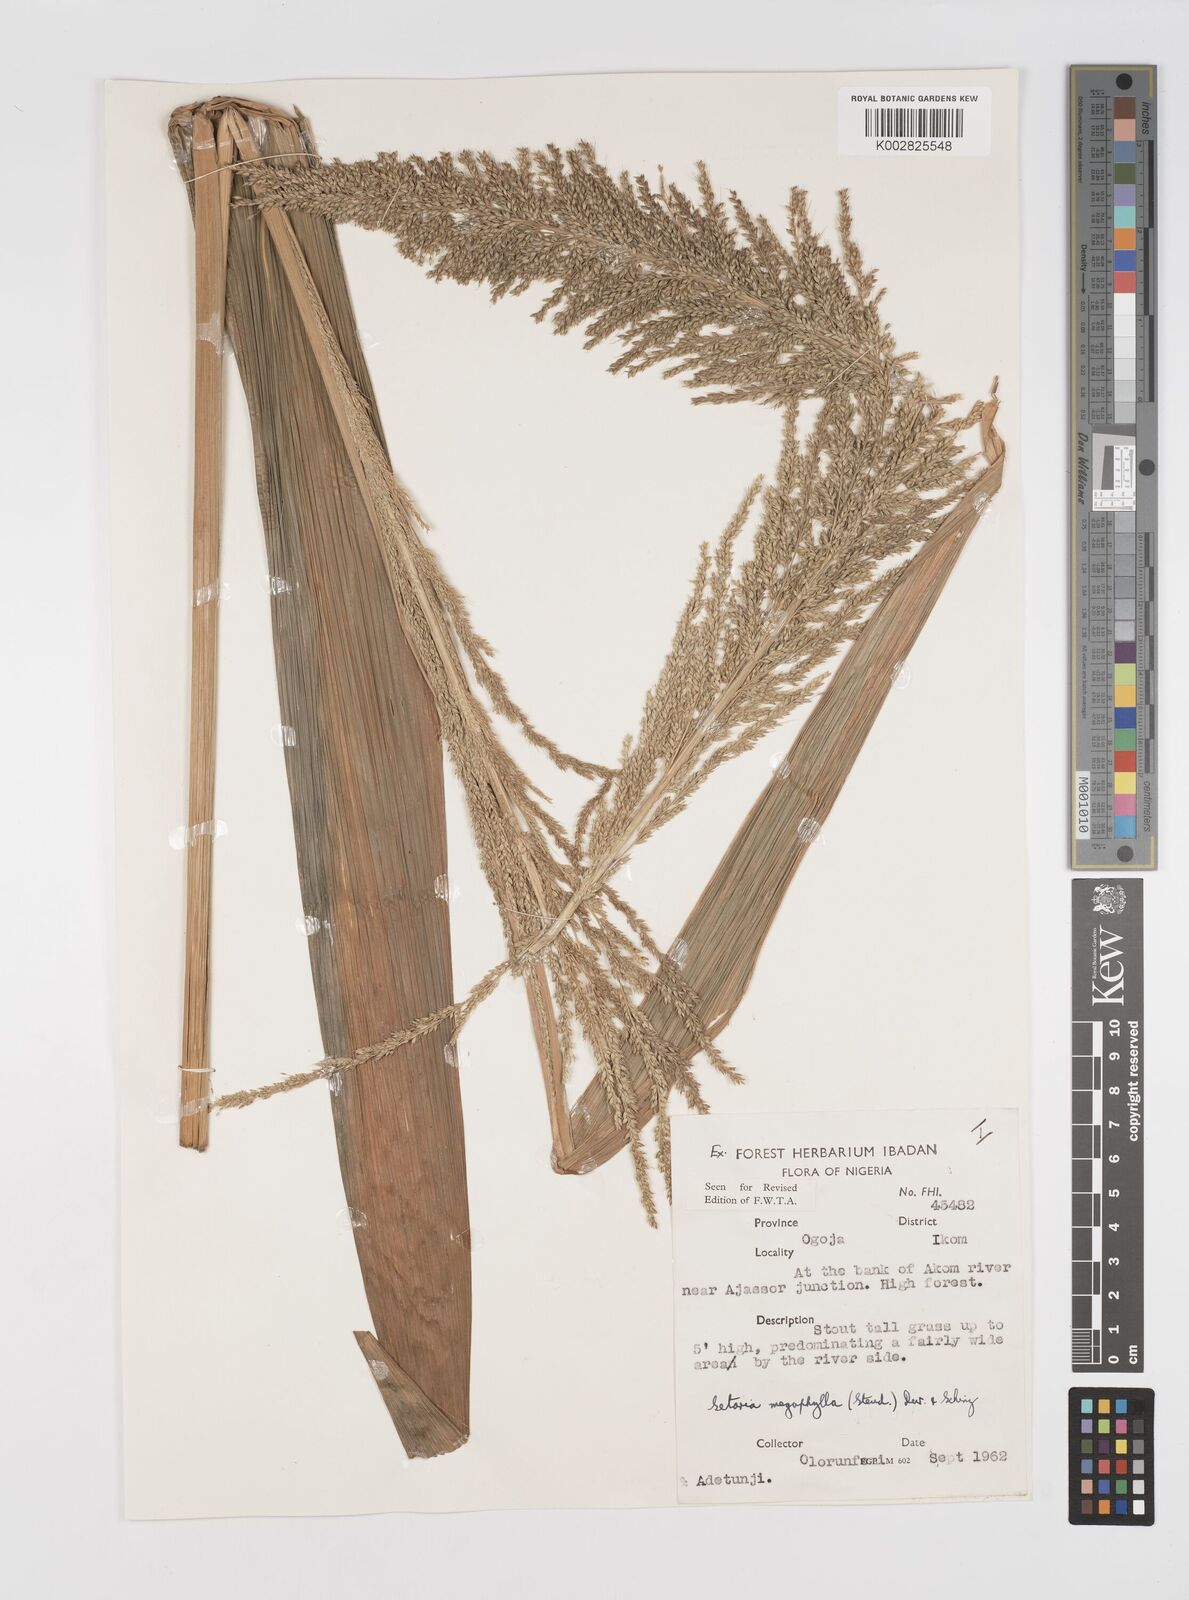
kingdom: Plantae
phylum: Tracheophyta
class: Liliopsida
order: Poales
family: Poaceae
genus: Setaria
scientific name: Setaria megaphylla
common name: Bigleaf bristlegrass
